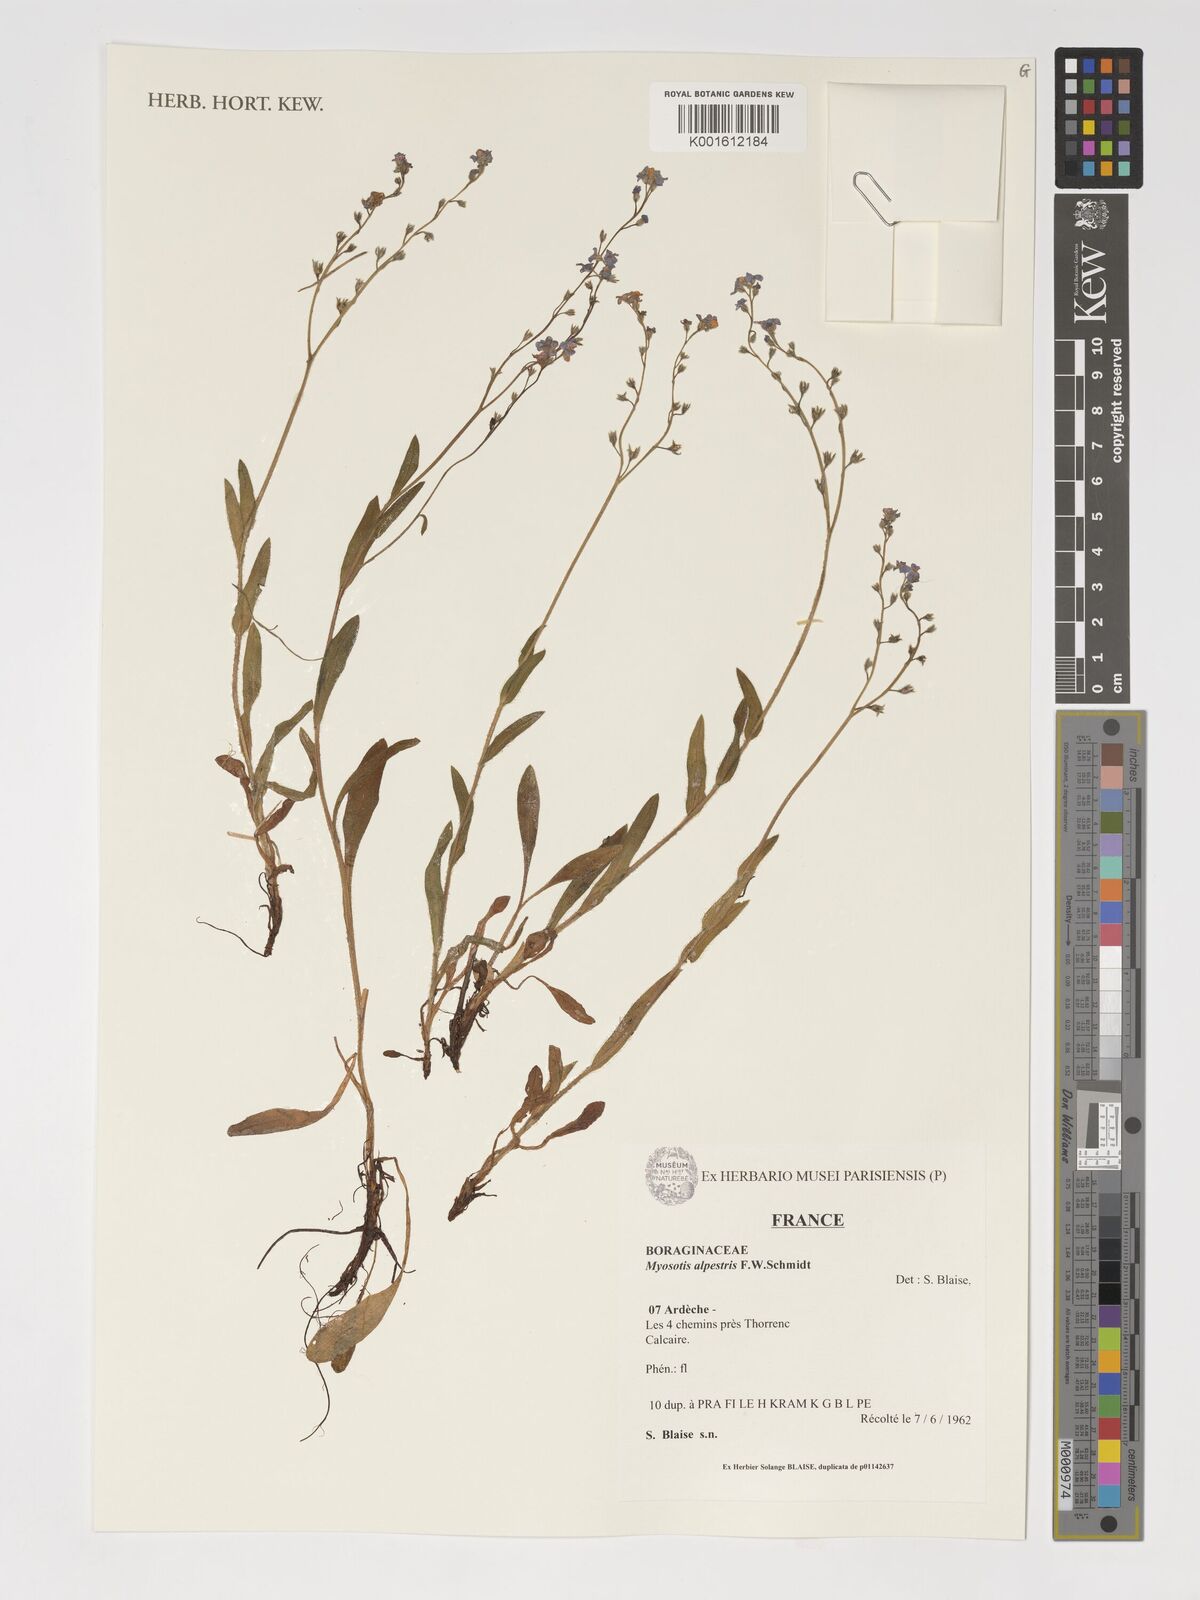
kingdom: Plantae
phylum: Tracheophyta
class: Magnoliopsida
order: Boraginales
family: Boraginaceae
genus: Myosotis
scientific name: Myosotis alpestris
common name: Alpine forget-me-not
